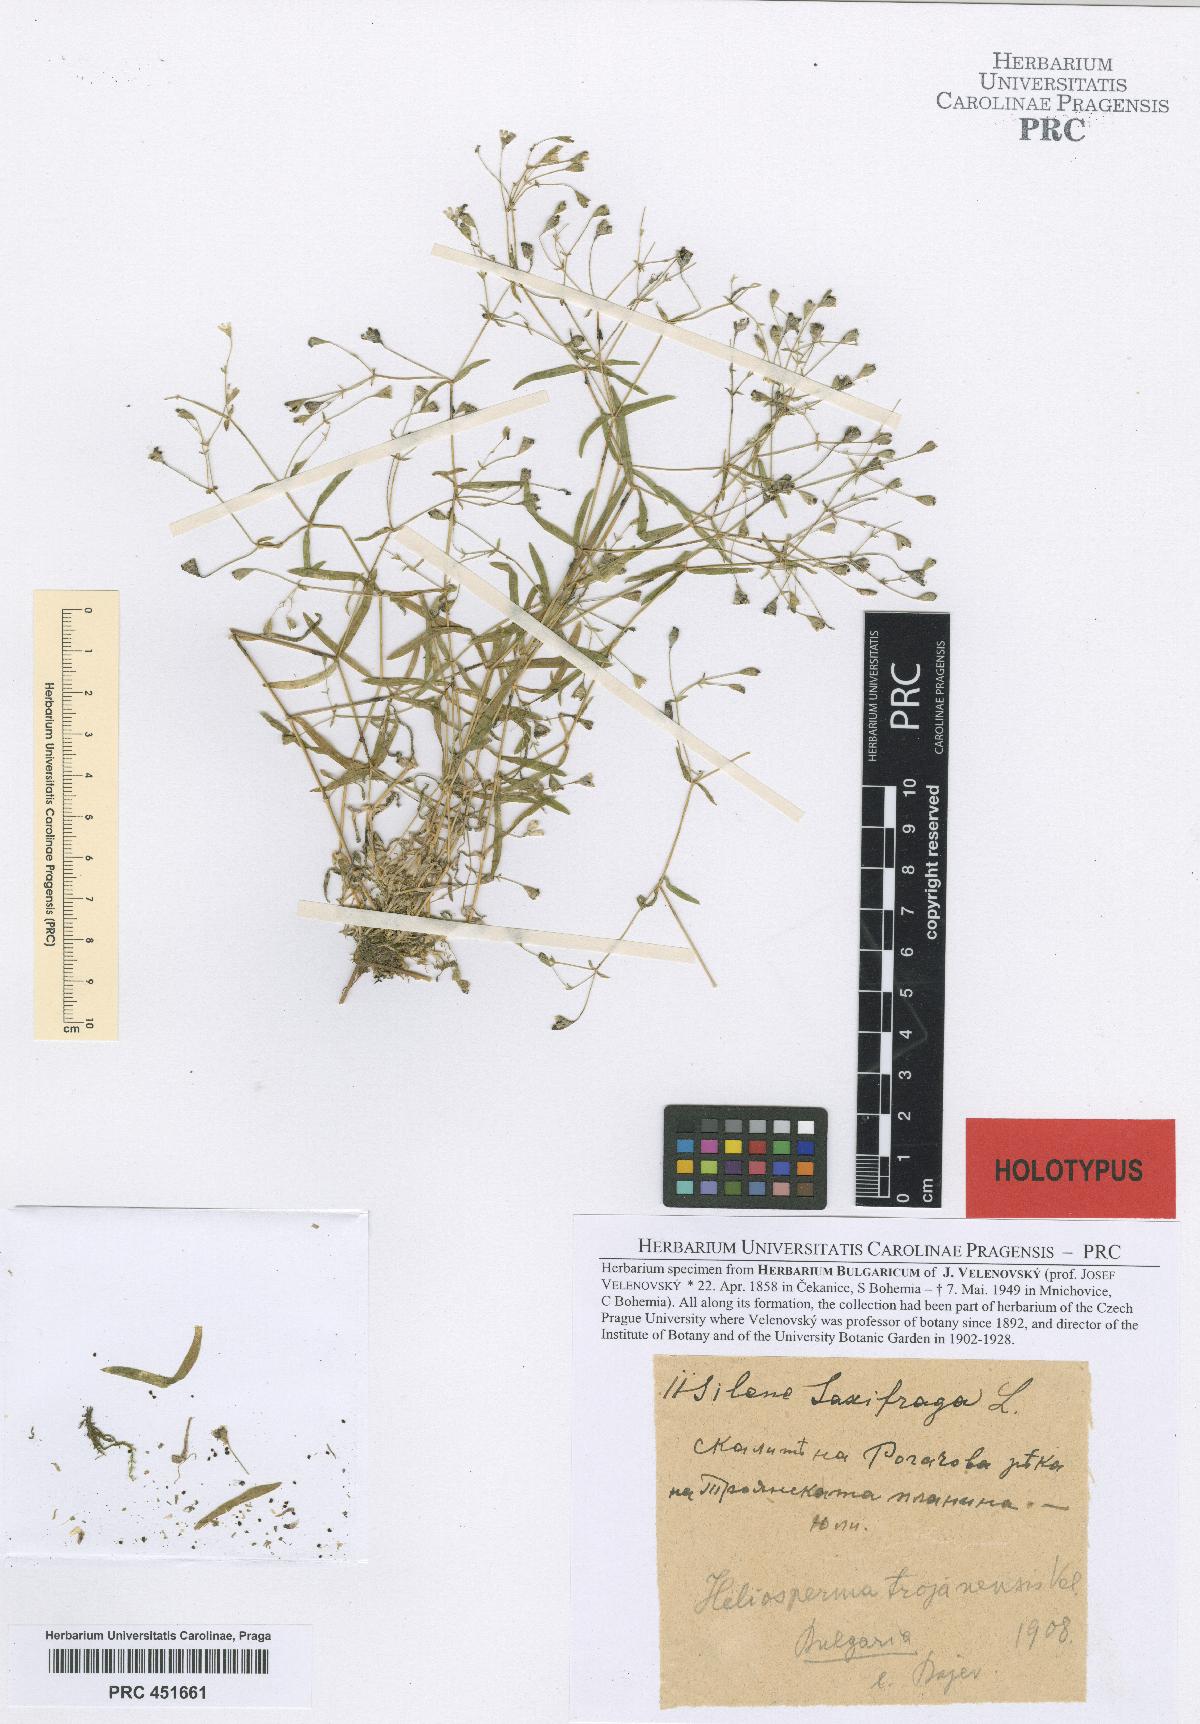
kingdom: Plantae
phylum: Tracheophyta
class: Magnoliopsida
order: Caryophyllales
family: Caryophyllaceae
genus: Heliosperma
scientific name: Heliosperma trojanense
